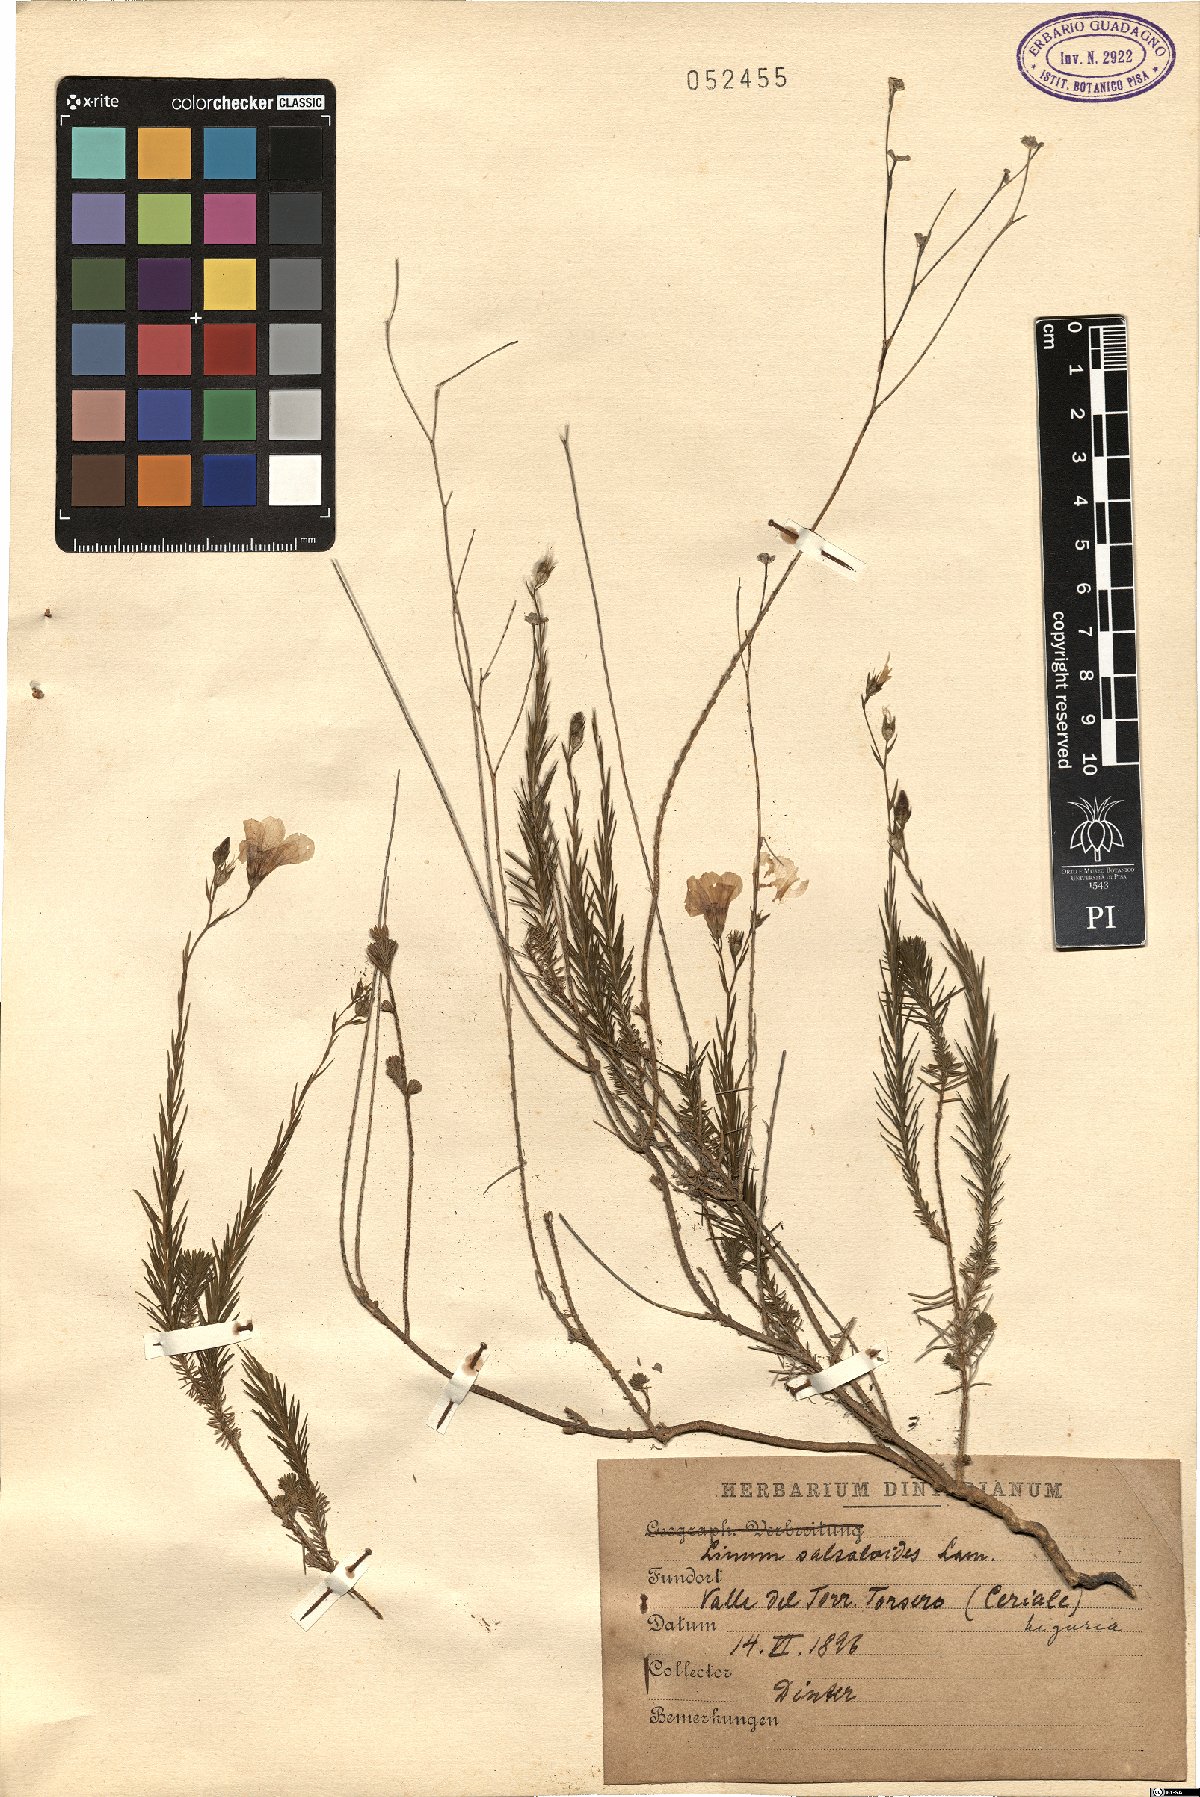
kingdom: Plantae
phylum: Tracheophyta
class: Magnoliopsida
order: Malpighiales
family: Linaceae
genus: Linum
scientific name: Linum salsoloides
